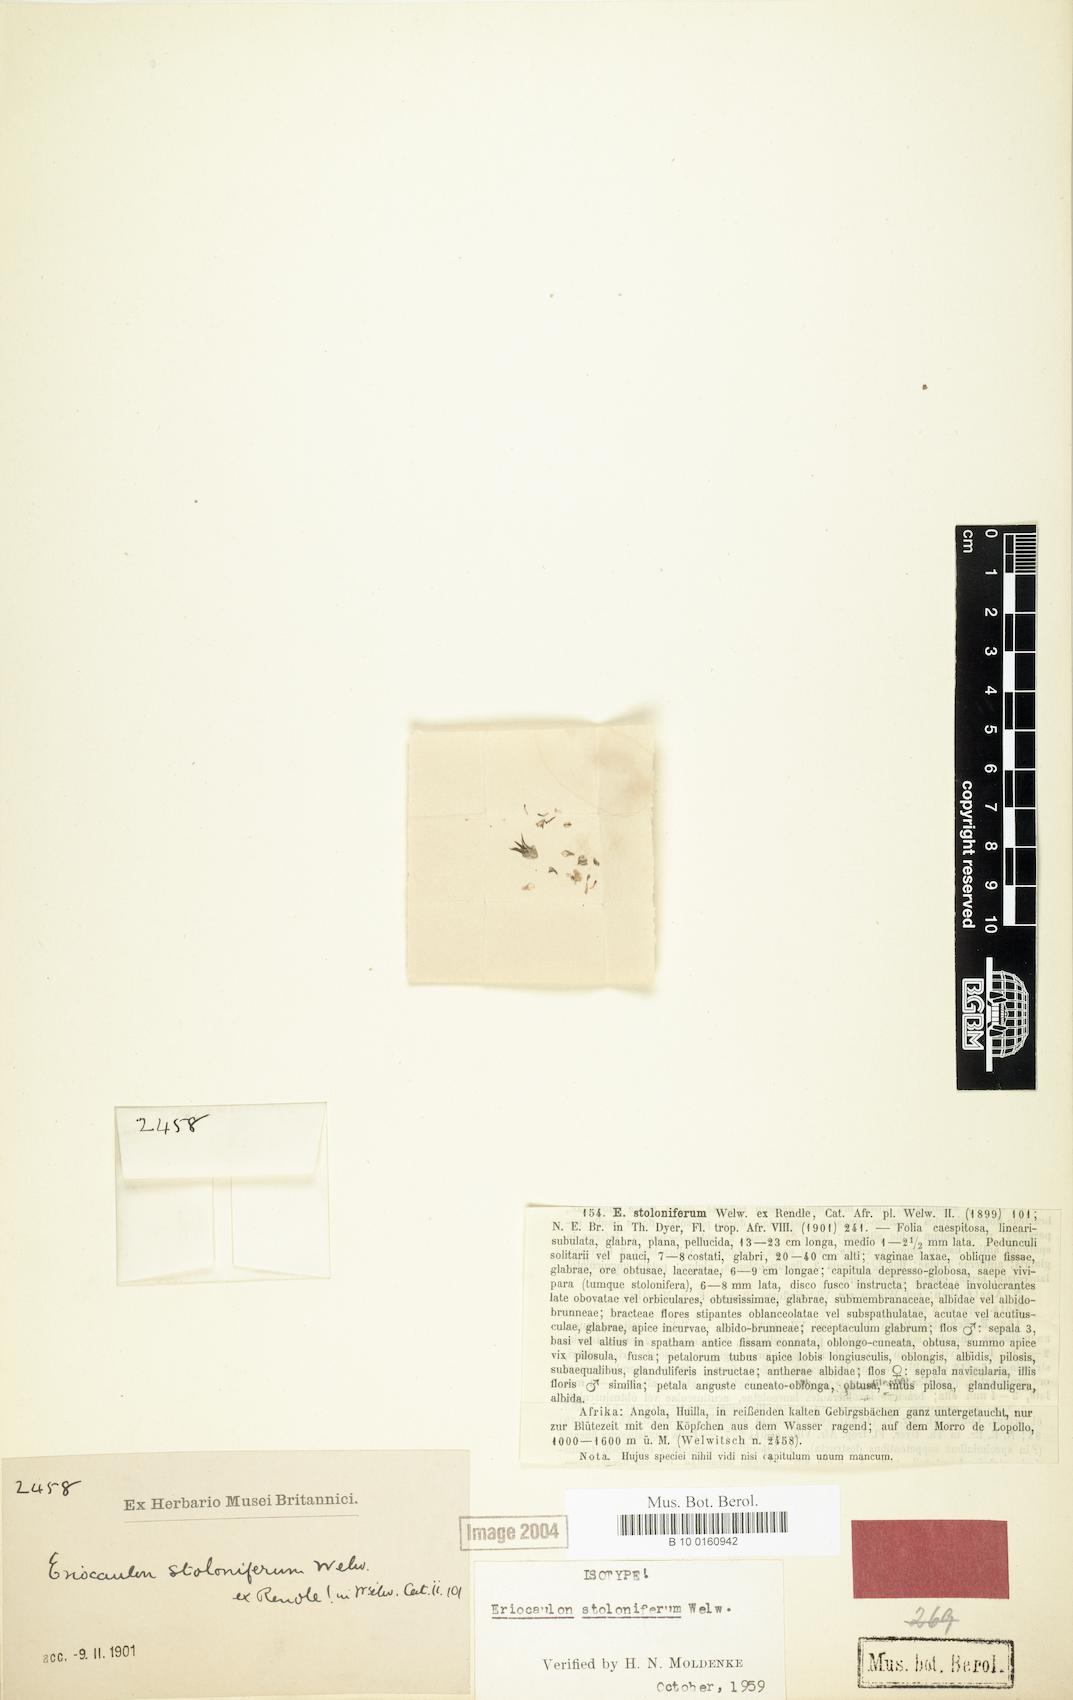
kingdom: Plantae
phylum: Tracheophyta
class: Liliopsida
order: Poales
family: Eriocaulaceae
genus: Eriocaulon
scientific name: Eriocaulon africanum
